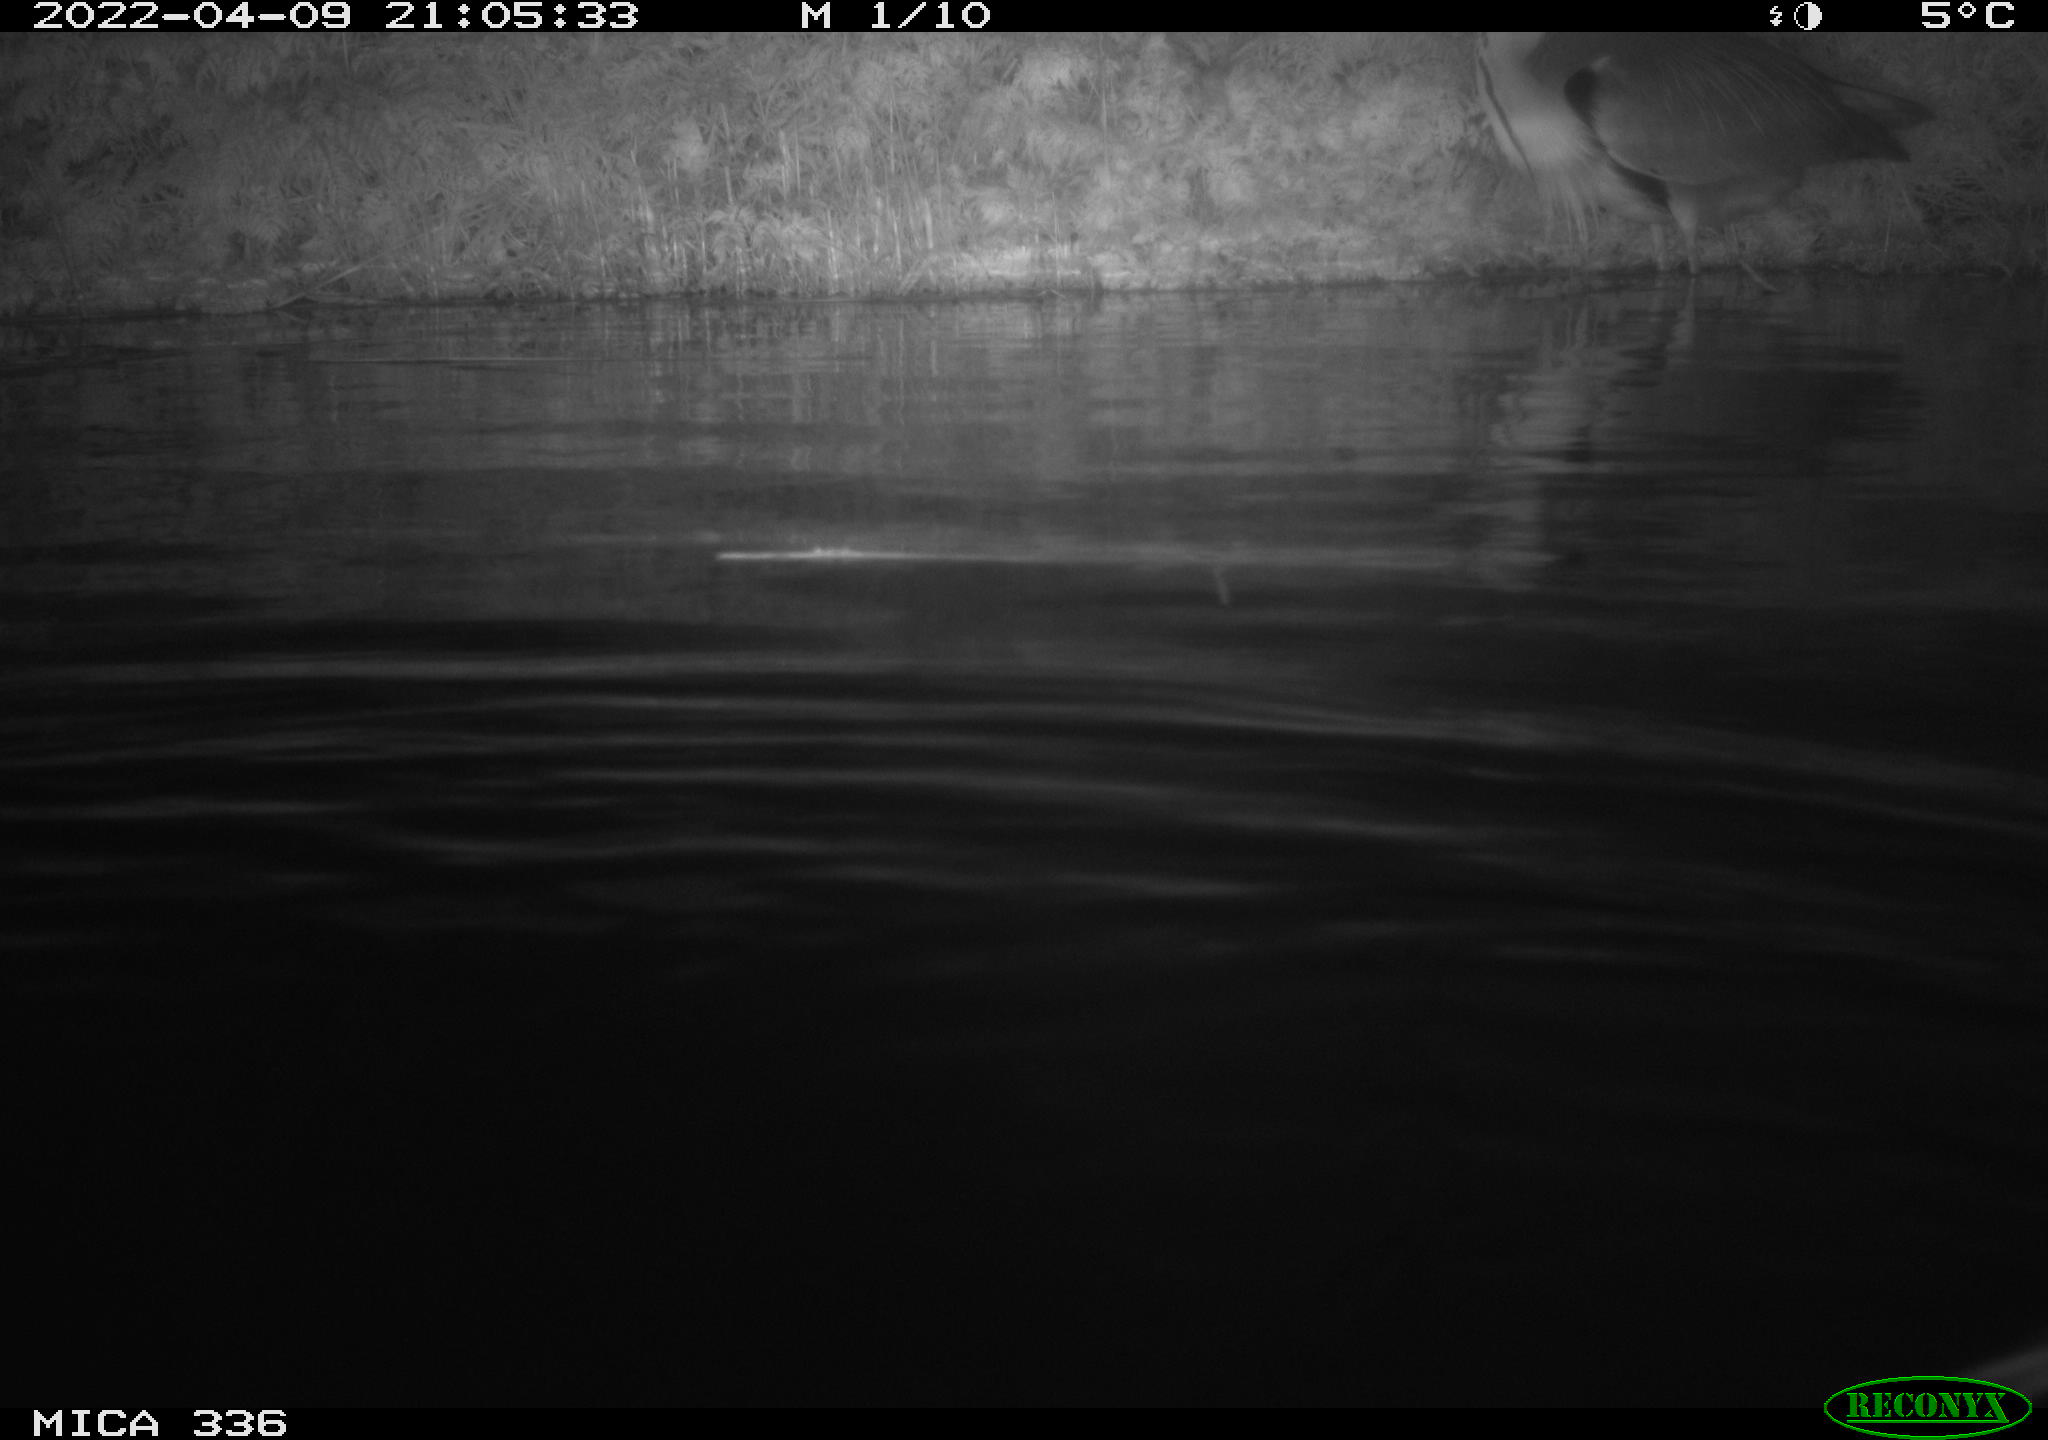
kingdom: Animalia
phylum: Chordata
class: Aves
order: Pelecaniformes
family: Ardeidae
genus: Ardea
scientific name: Ardea cinerea
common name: Grey heron
